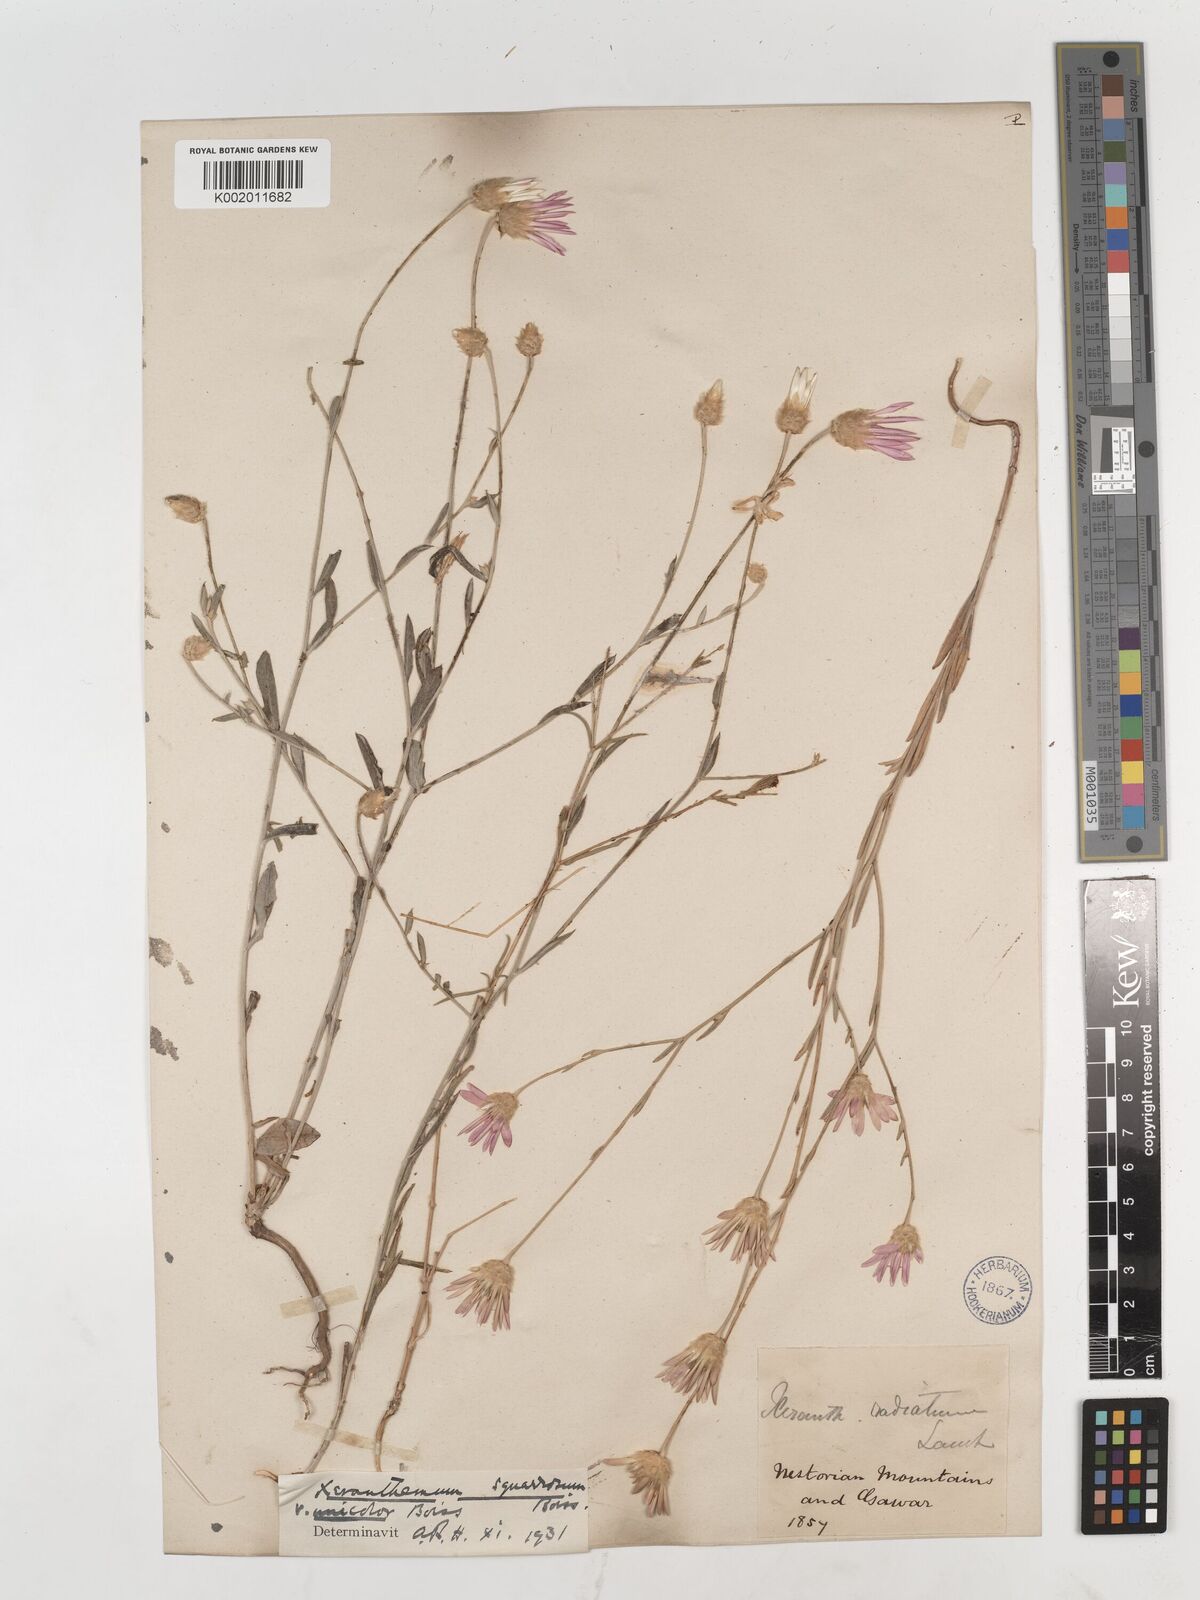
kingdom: Plantae
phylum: Tracheophyta
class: Magnoliopsida
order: Asterales
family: Asteraceae
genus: Xeranthemum
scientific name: Xeranthemum squarrosum
